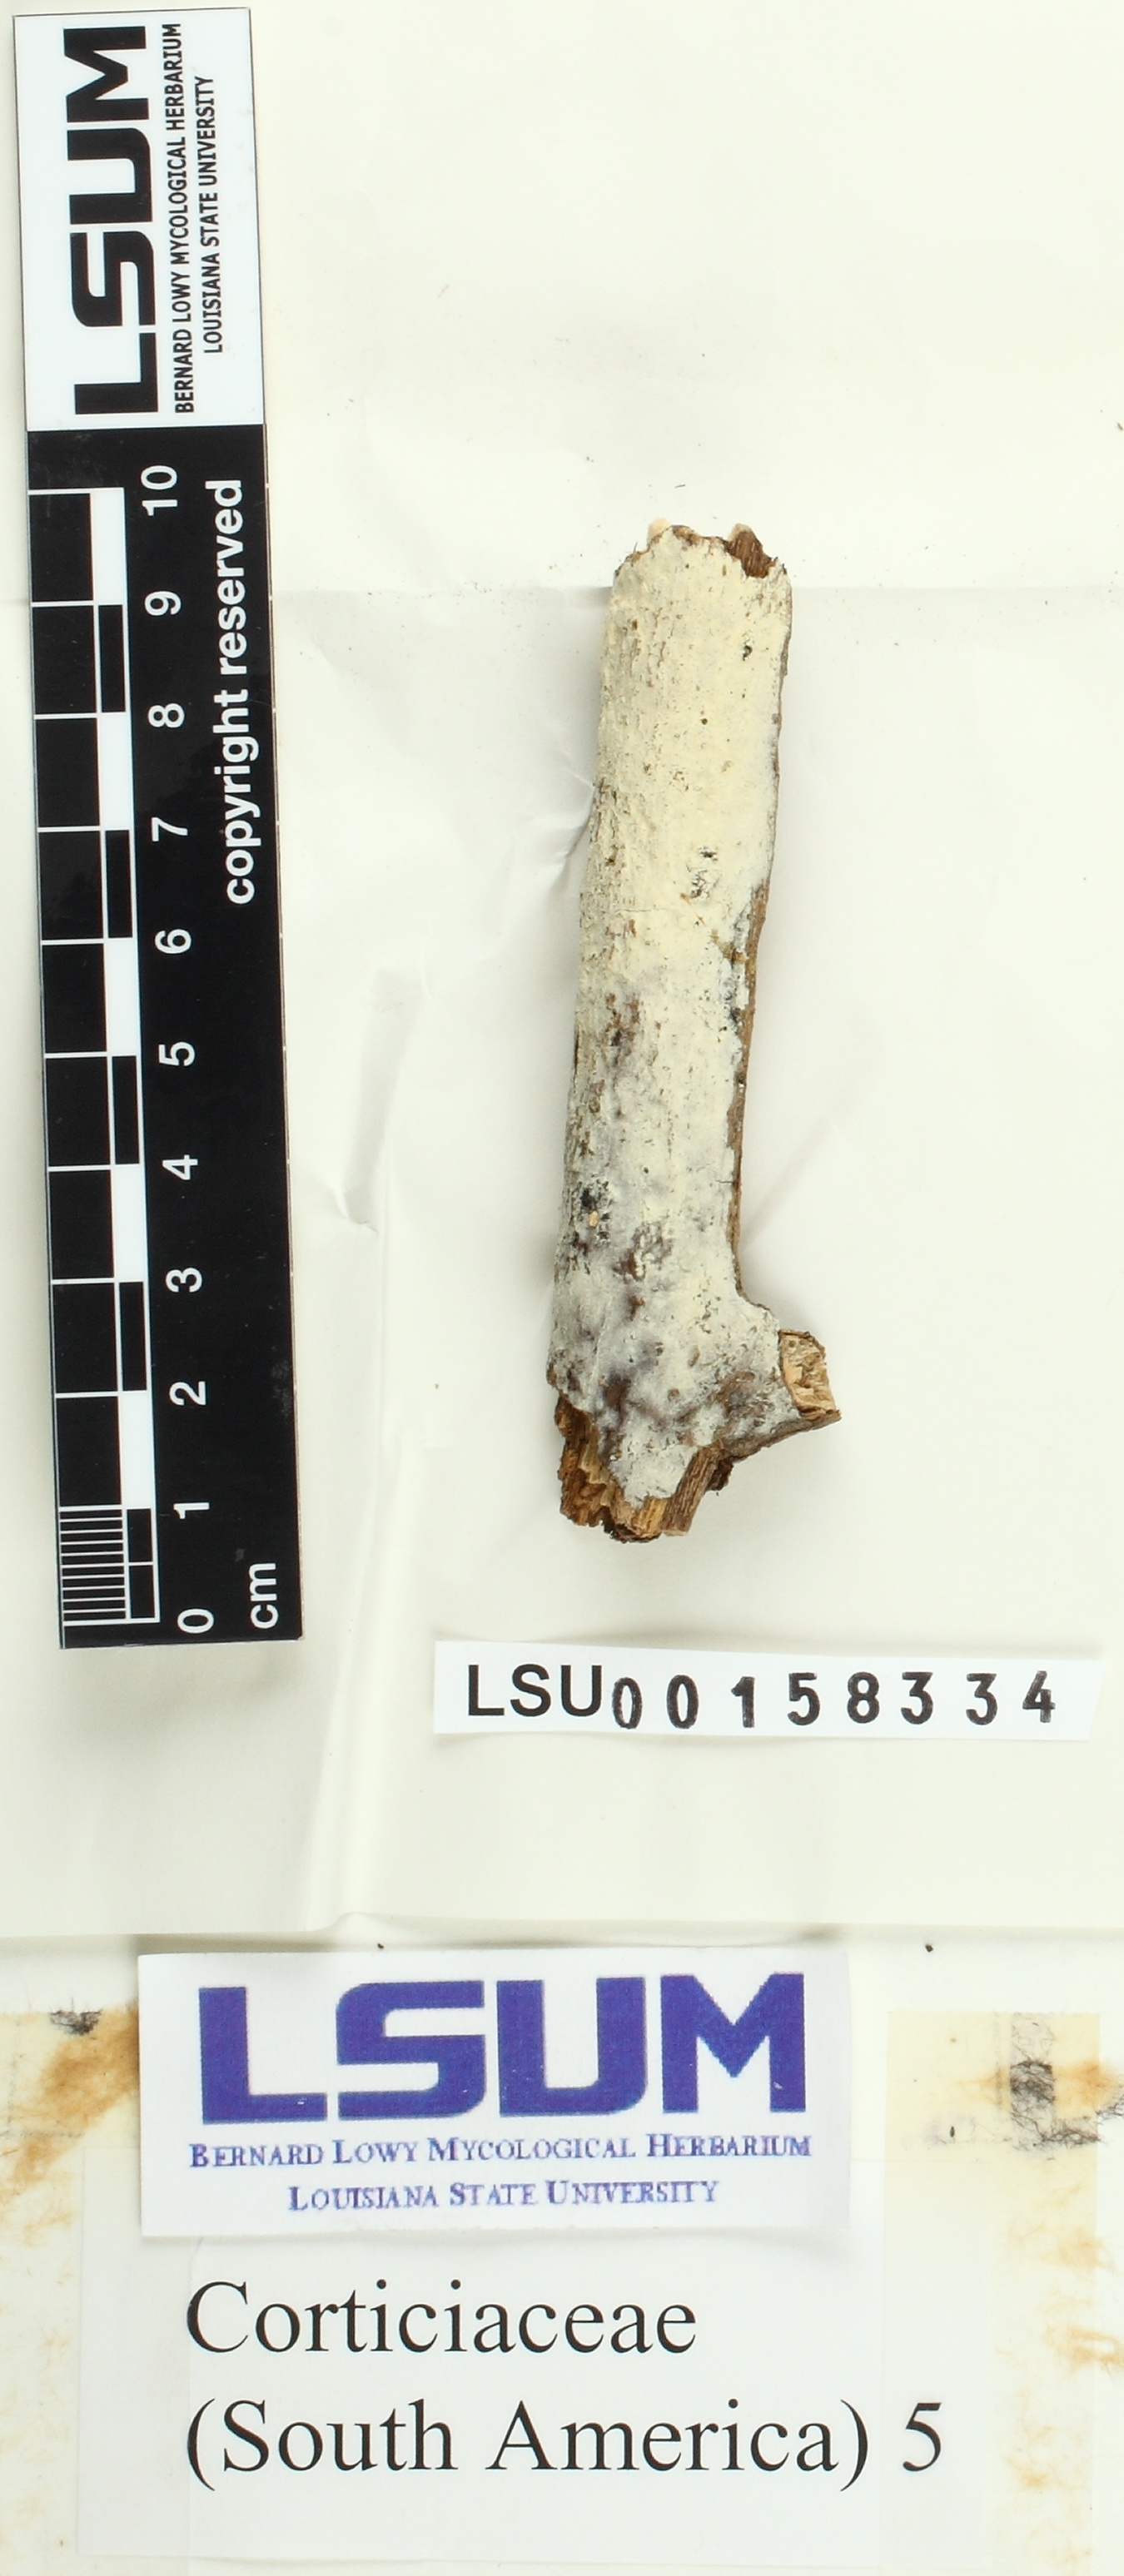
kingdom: Fungi
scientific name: Fungi
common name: Fungi
